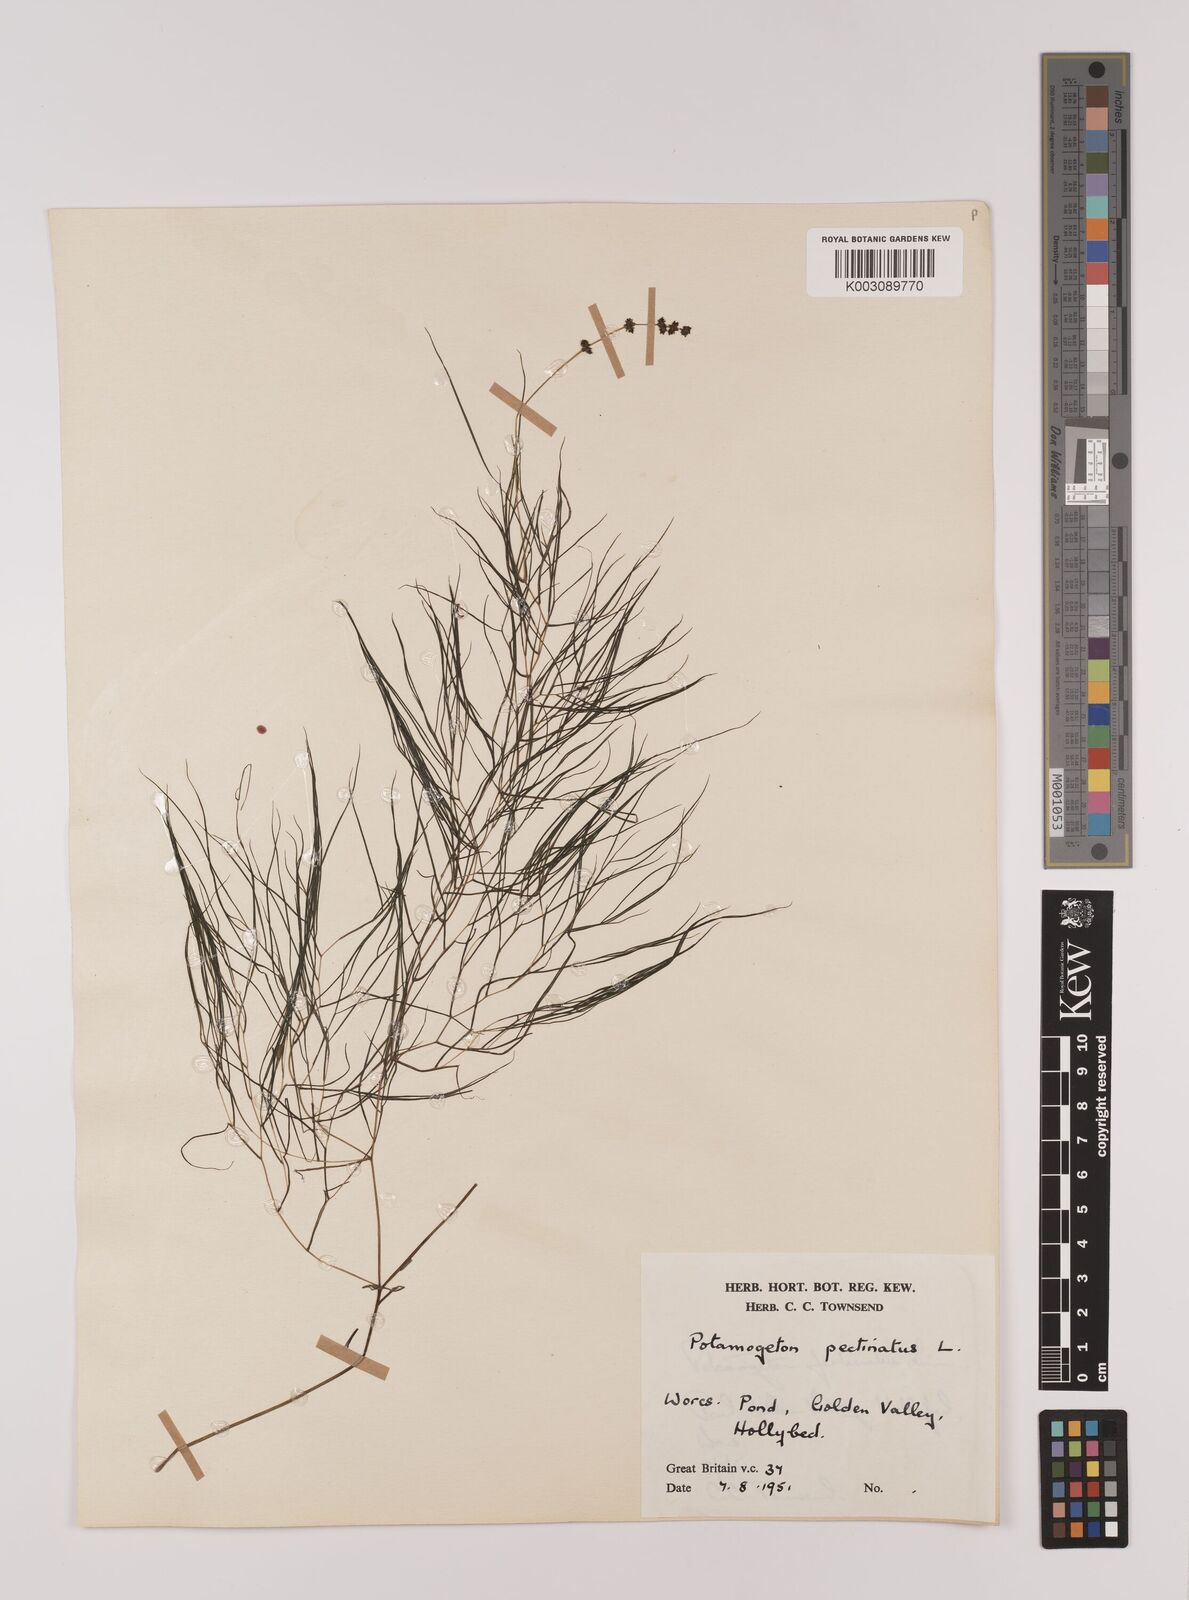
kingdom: Plantae
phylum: Tracheophyta
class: Liliopsida
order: Alismatales
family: Potamogetonaceae
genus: Stuckenia
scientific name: Stuckenia pectinata
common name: Sago pondweed
